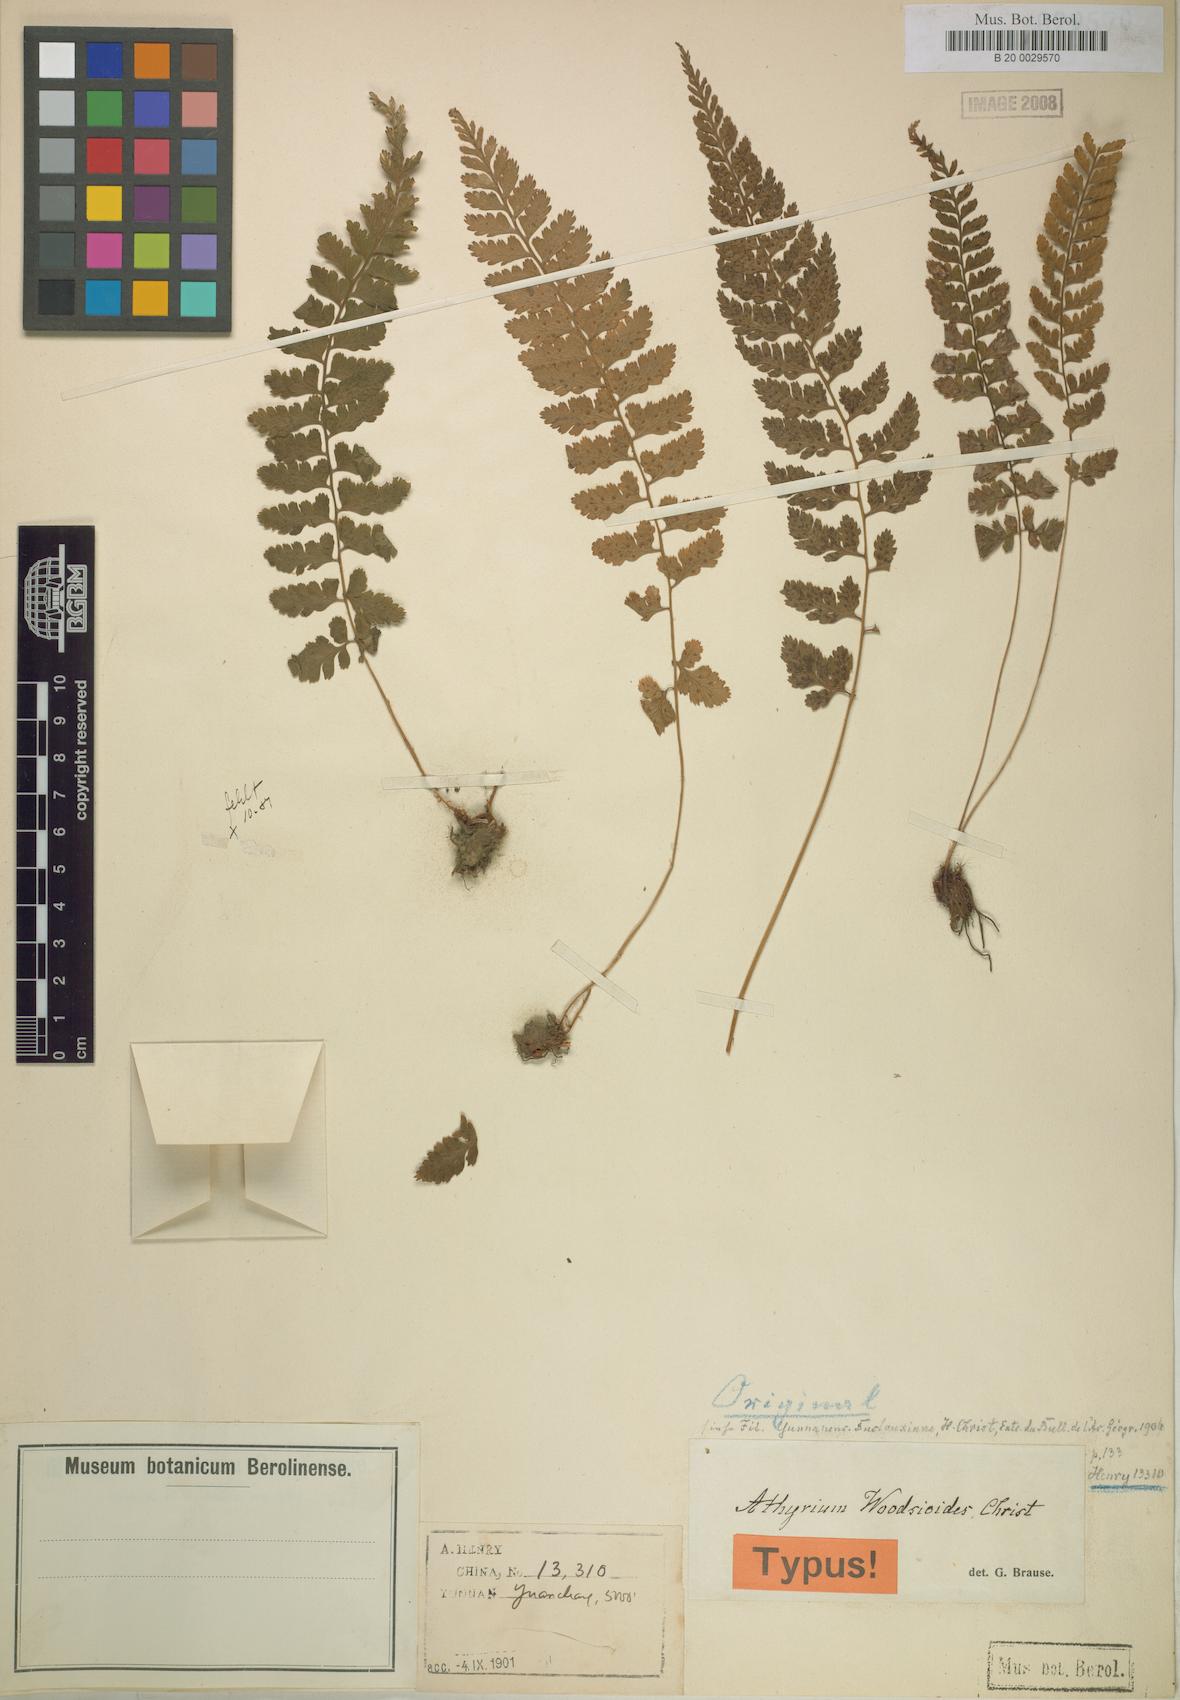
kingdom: Plantae
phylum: Tracheophyta
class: Polypodiopsida
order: Polypodiales
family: Athyriaceae
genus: Athyrium
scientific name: Athyrium anisopterum
